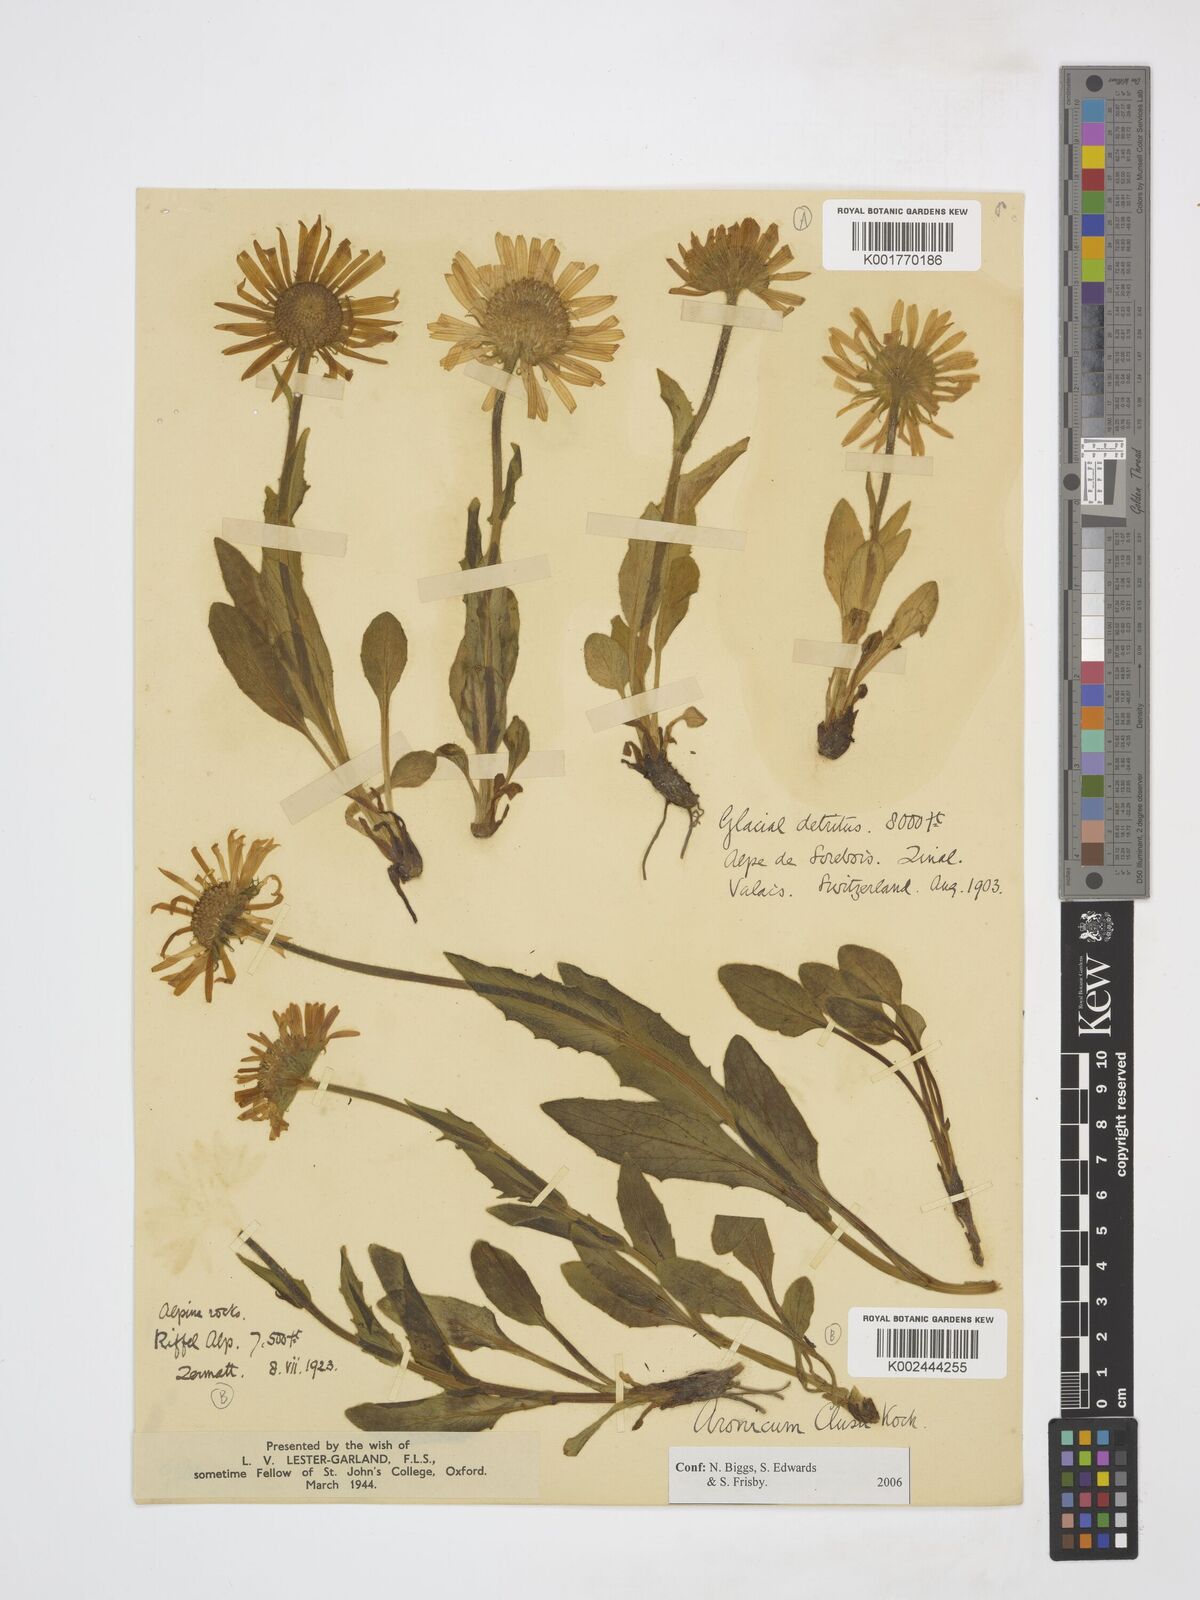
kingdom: Plantae
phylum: Tracheophyta
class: Magnoliopsida
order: Asterales
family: Asteraceae
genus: Doronicum
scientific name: Doronicum clusii
